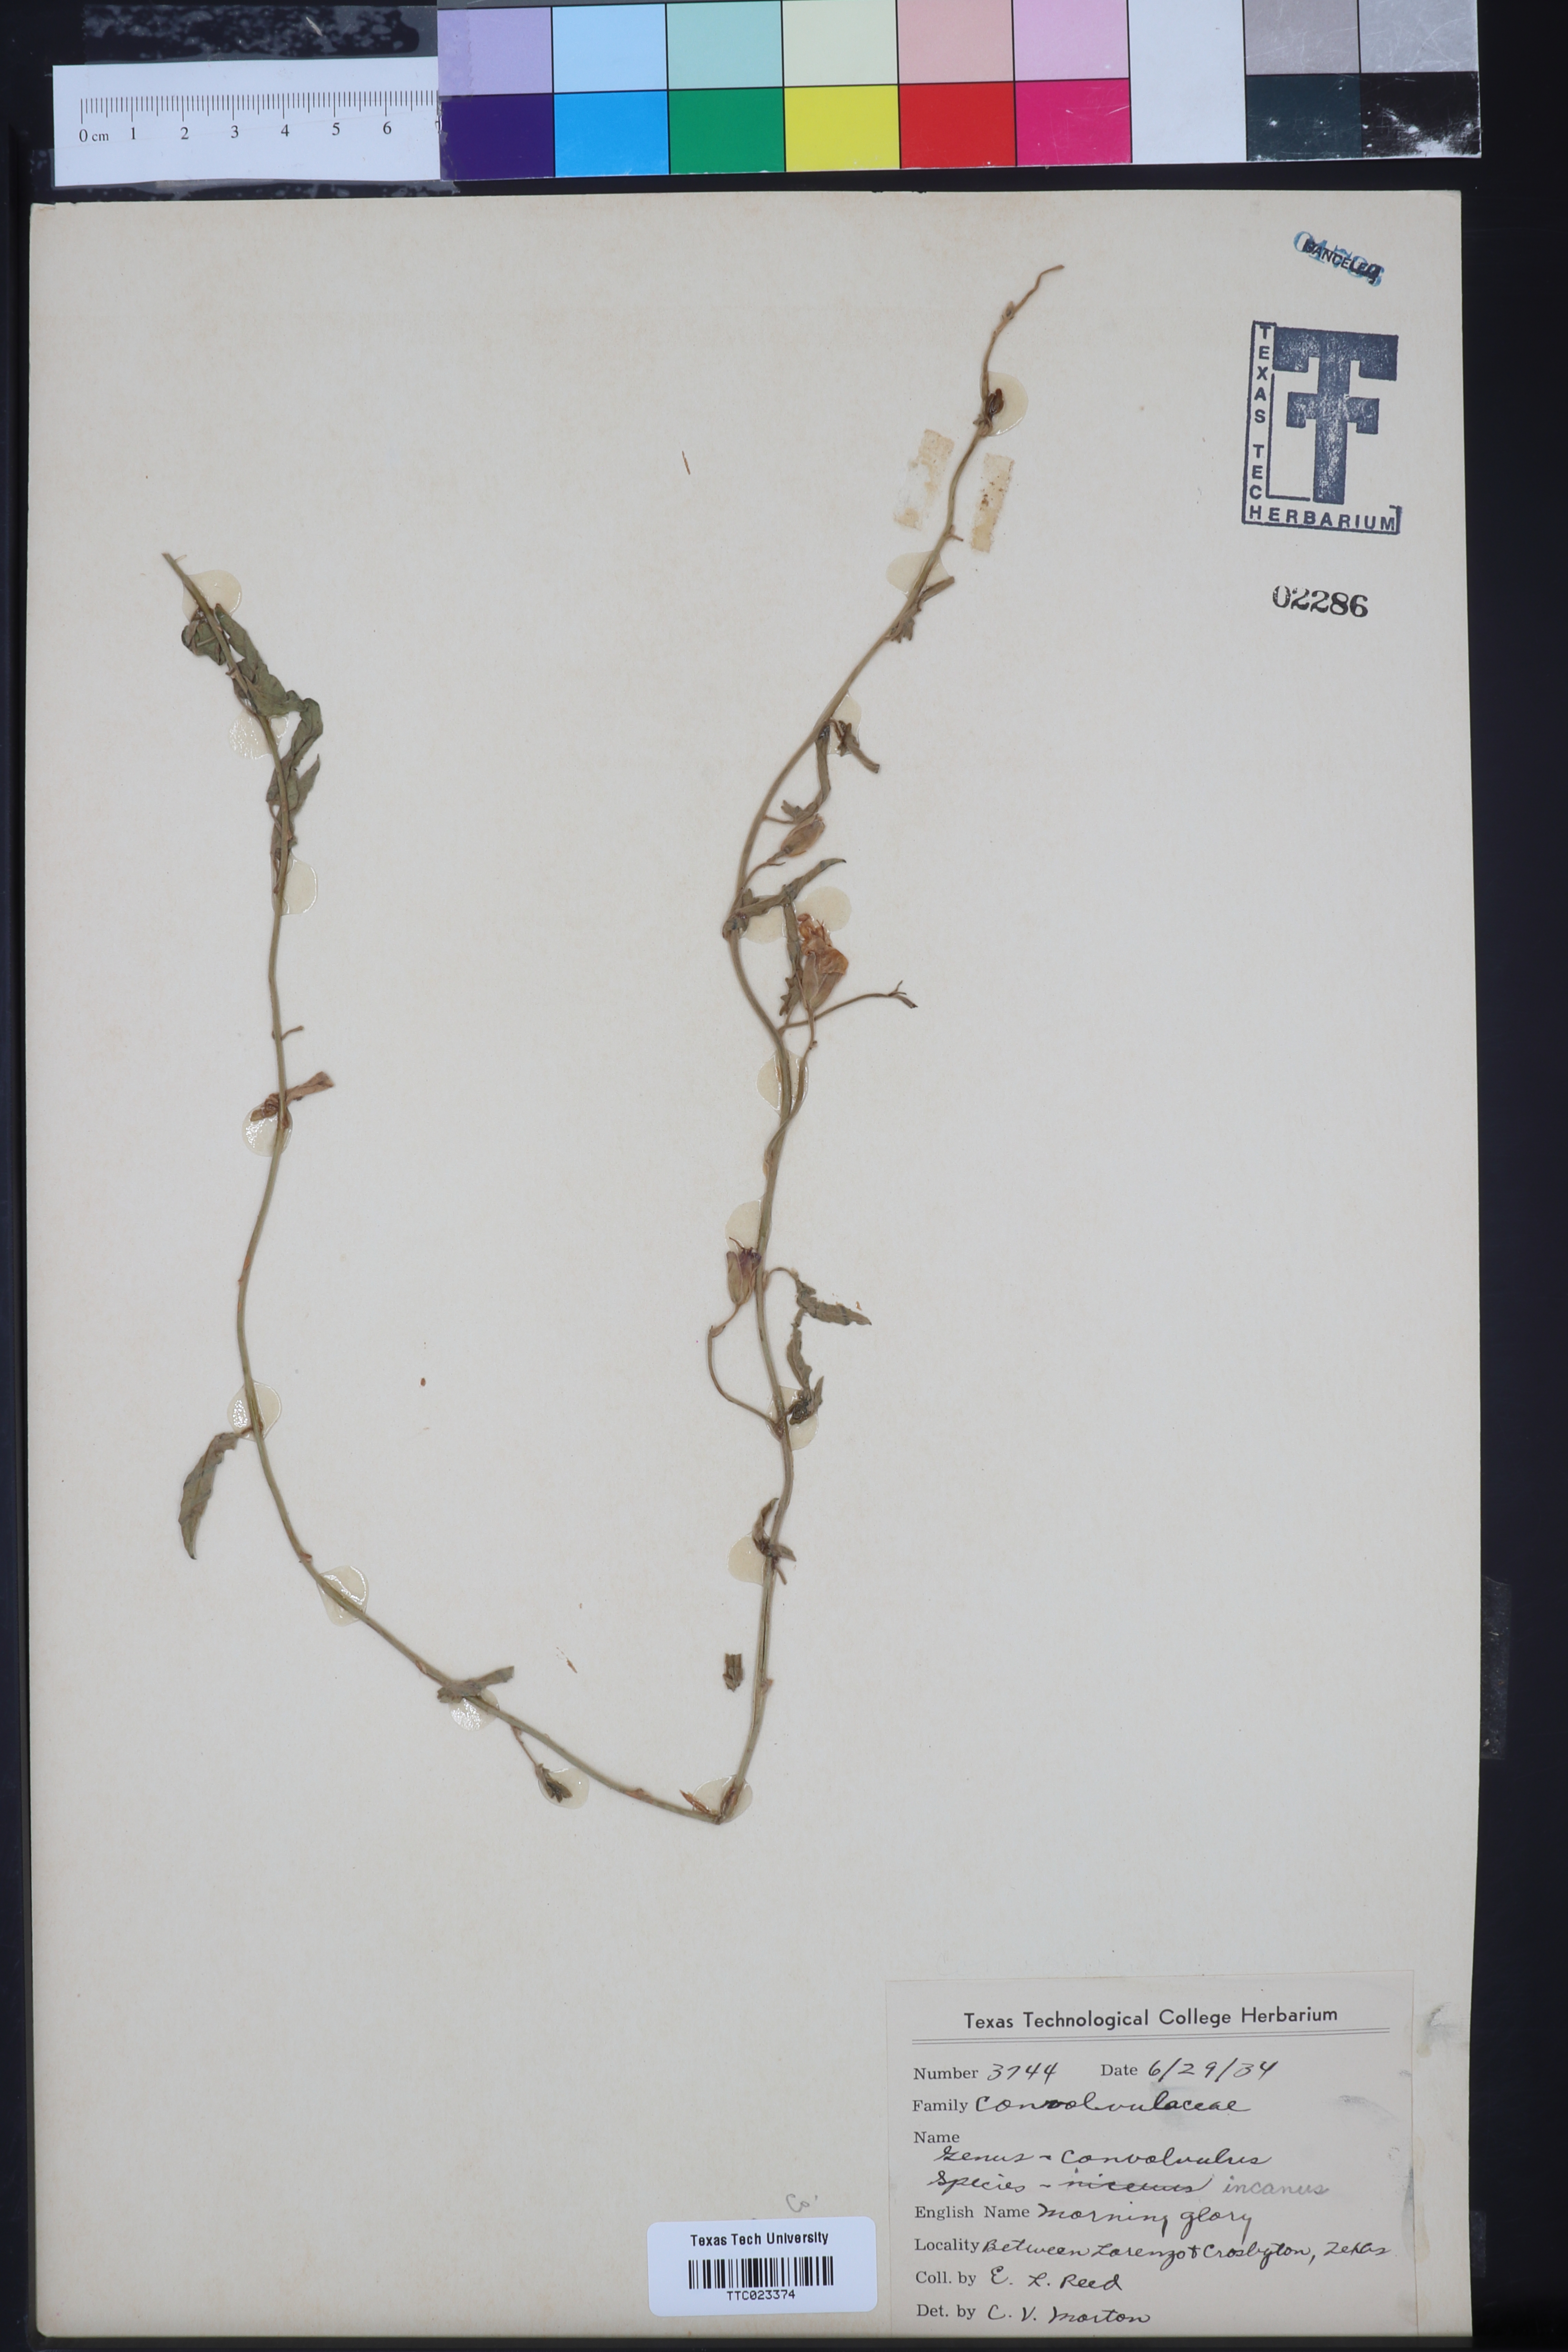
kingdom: Plantae
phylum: Tracheophyta
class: Magnoliopsida
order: Solanales
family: Convolvulaceae
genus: Convolvulus
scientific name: Convolvulus hermanniae
